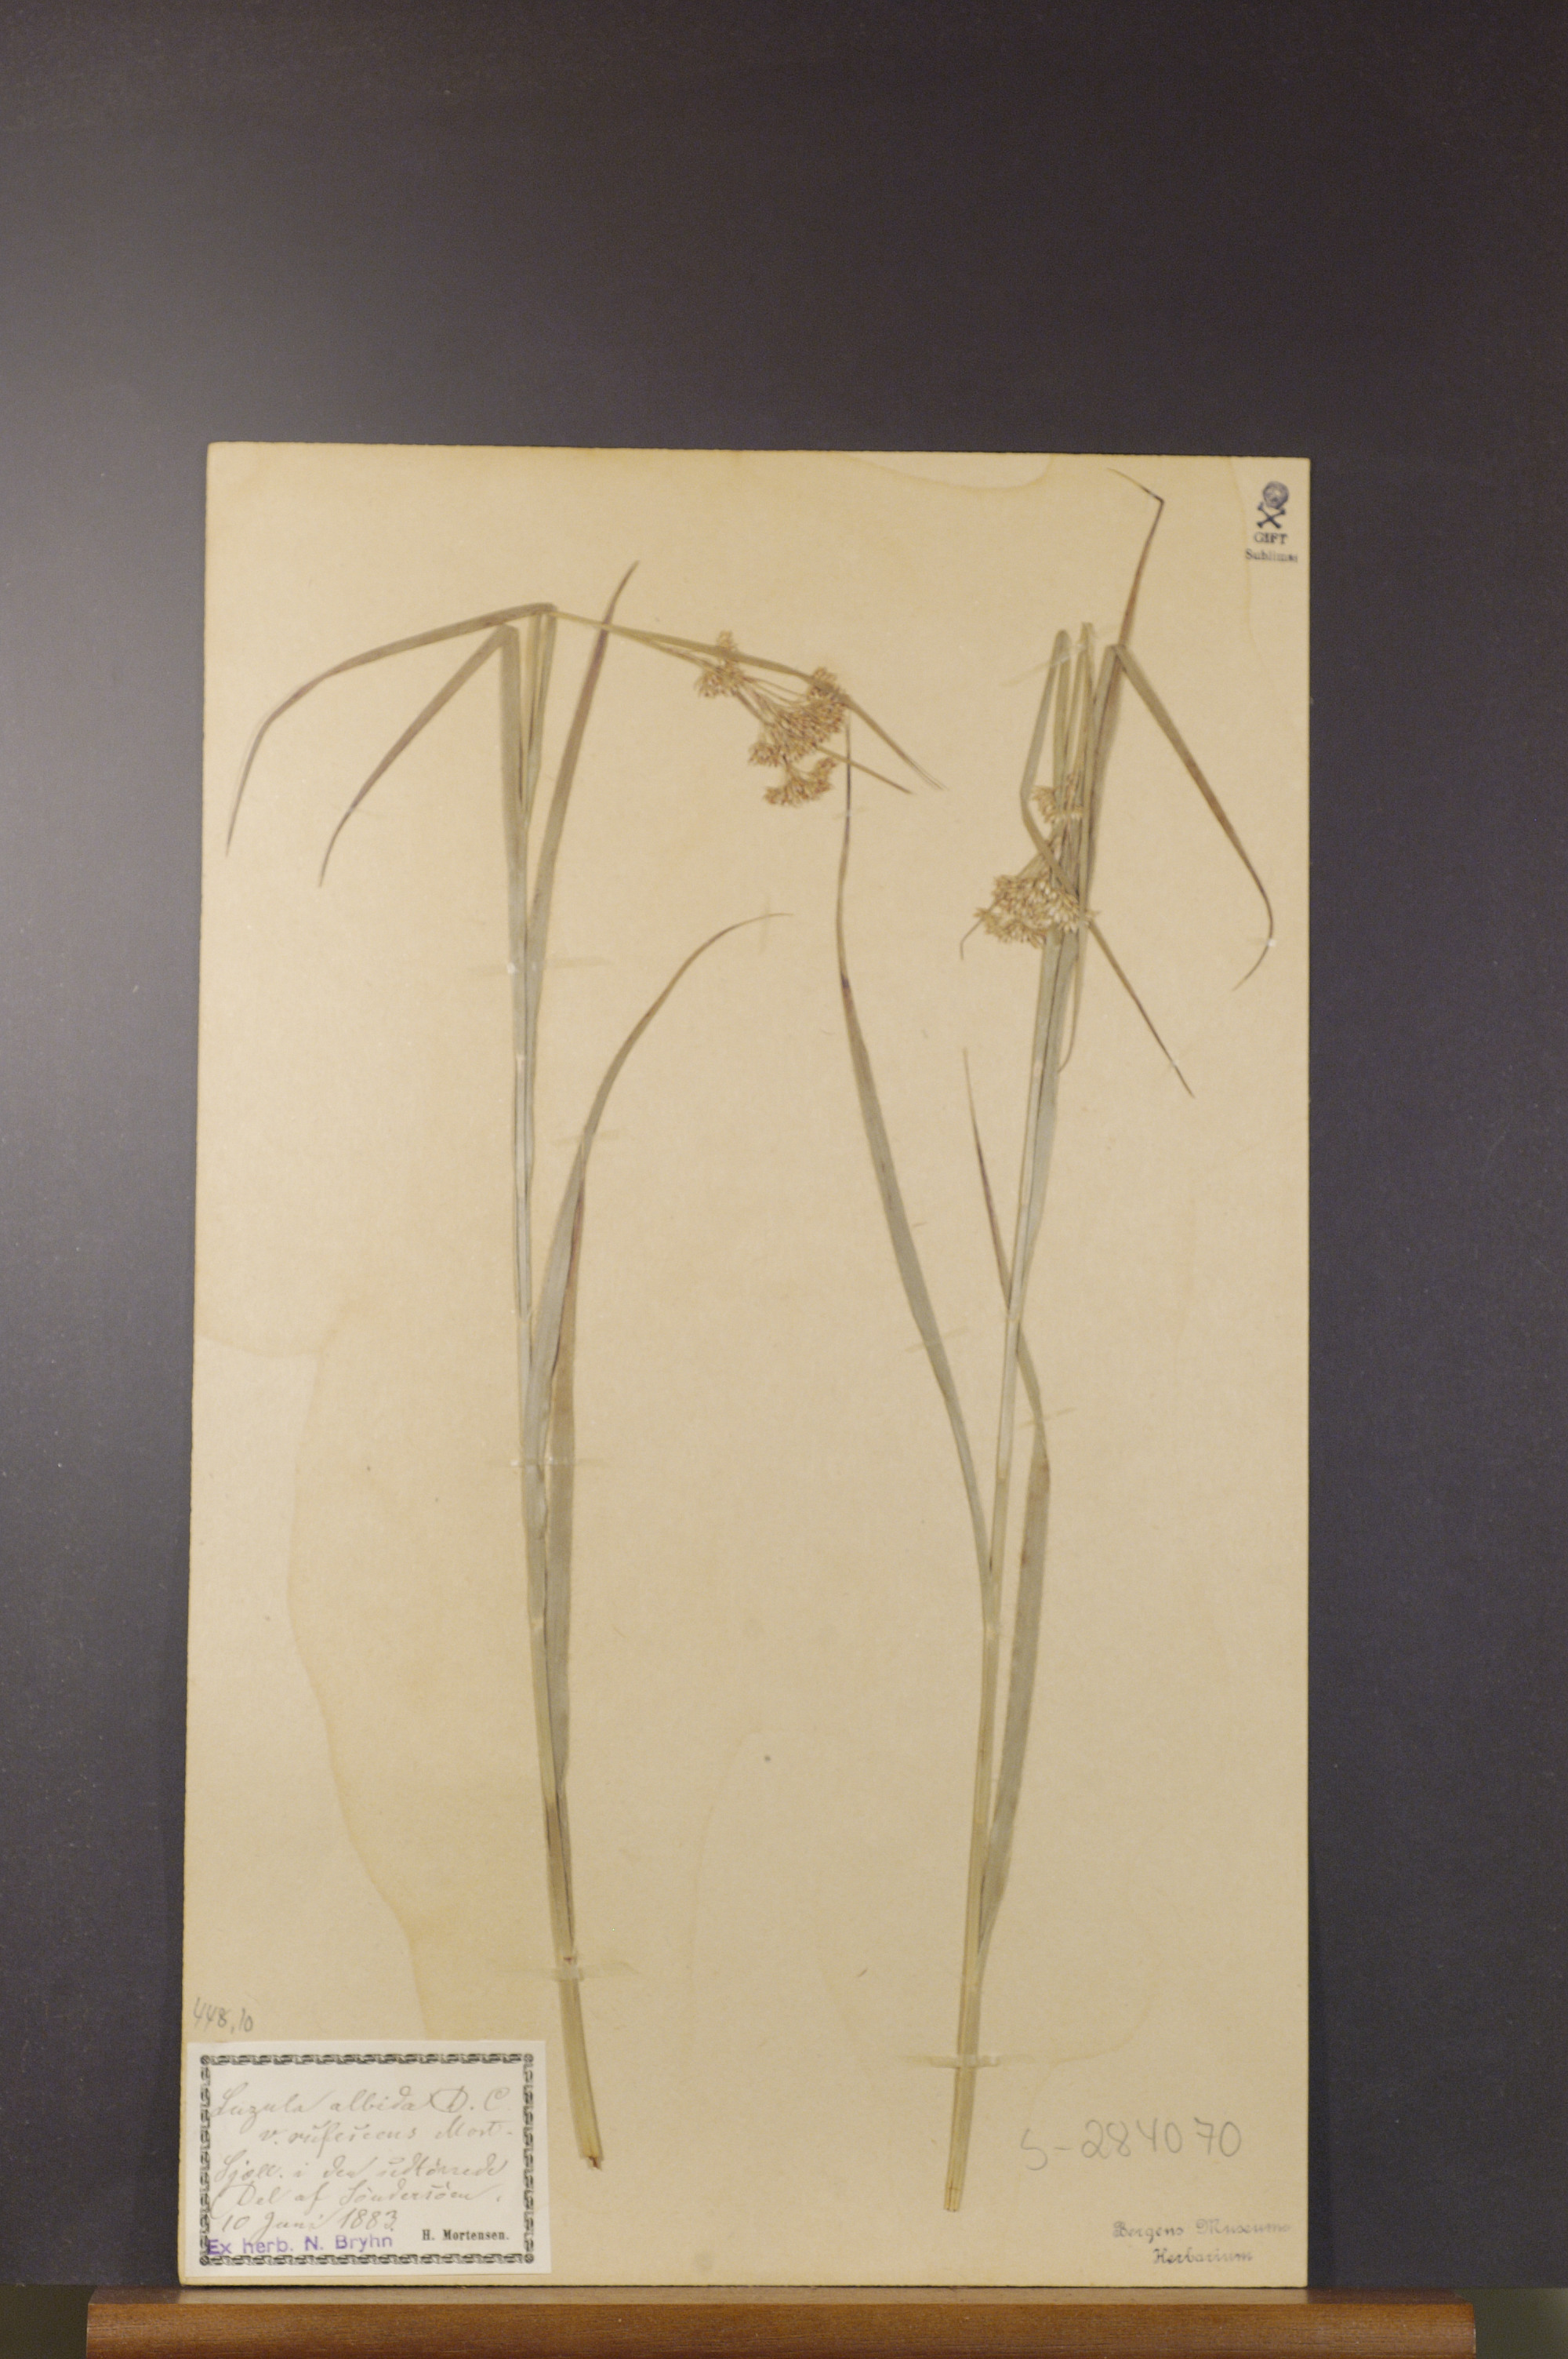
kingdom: Plantae
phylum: Tracheophyta
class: Liliopsida
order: Poales
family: Juncaceae
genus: Luzula
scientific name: Luzula luzuloides
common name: White wood-rush
